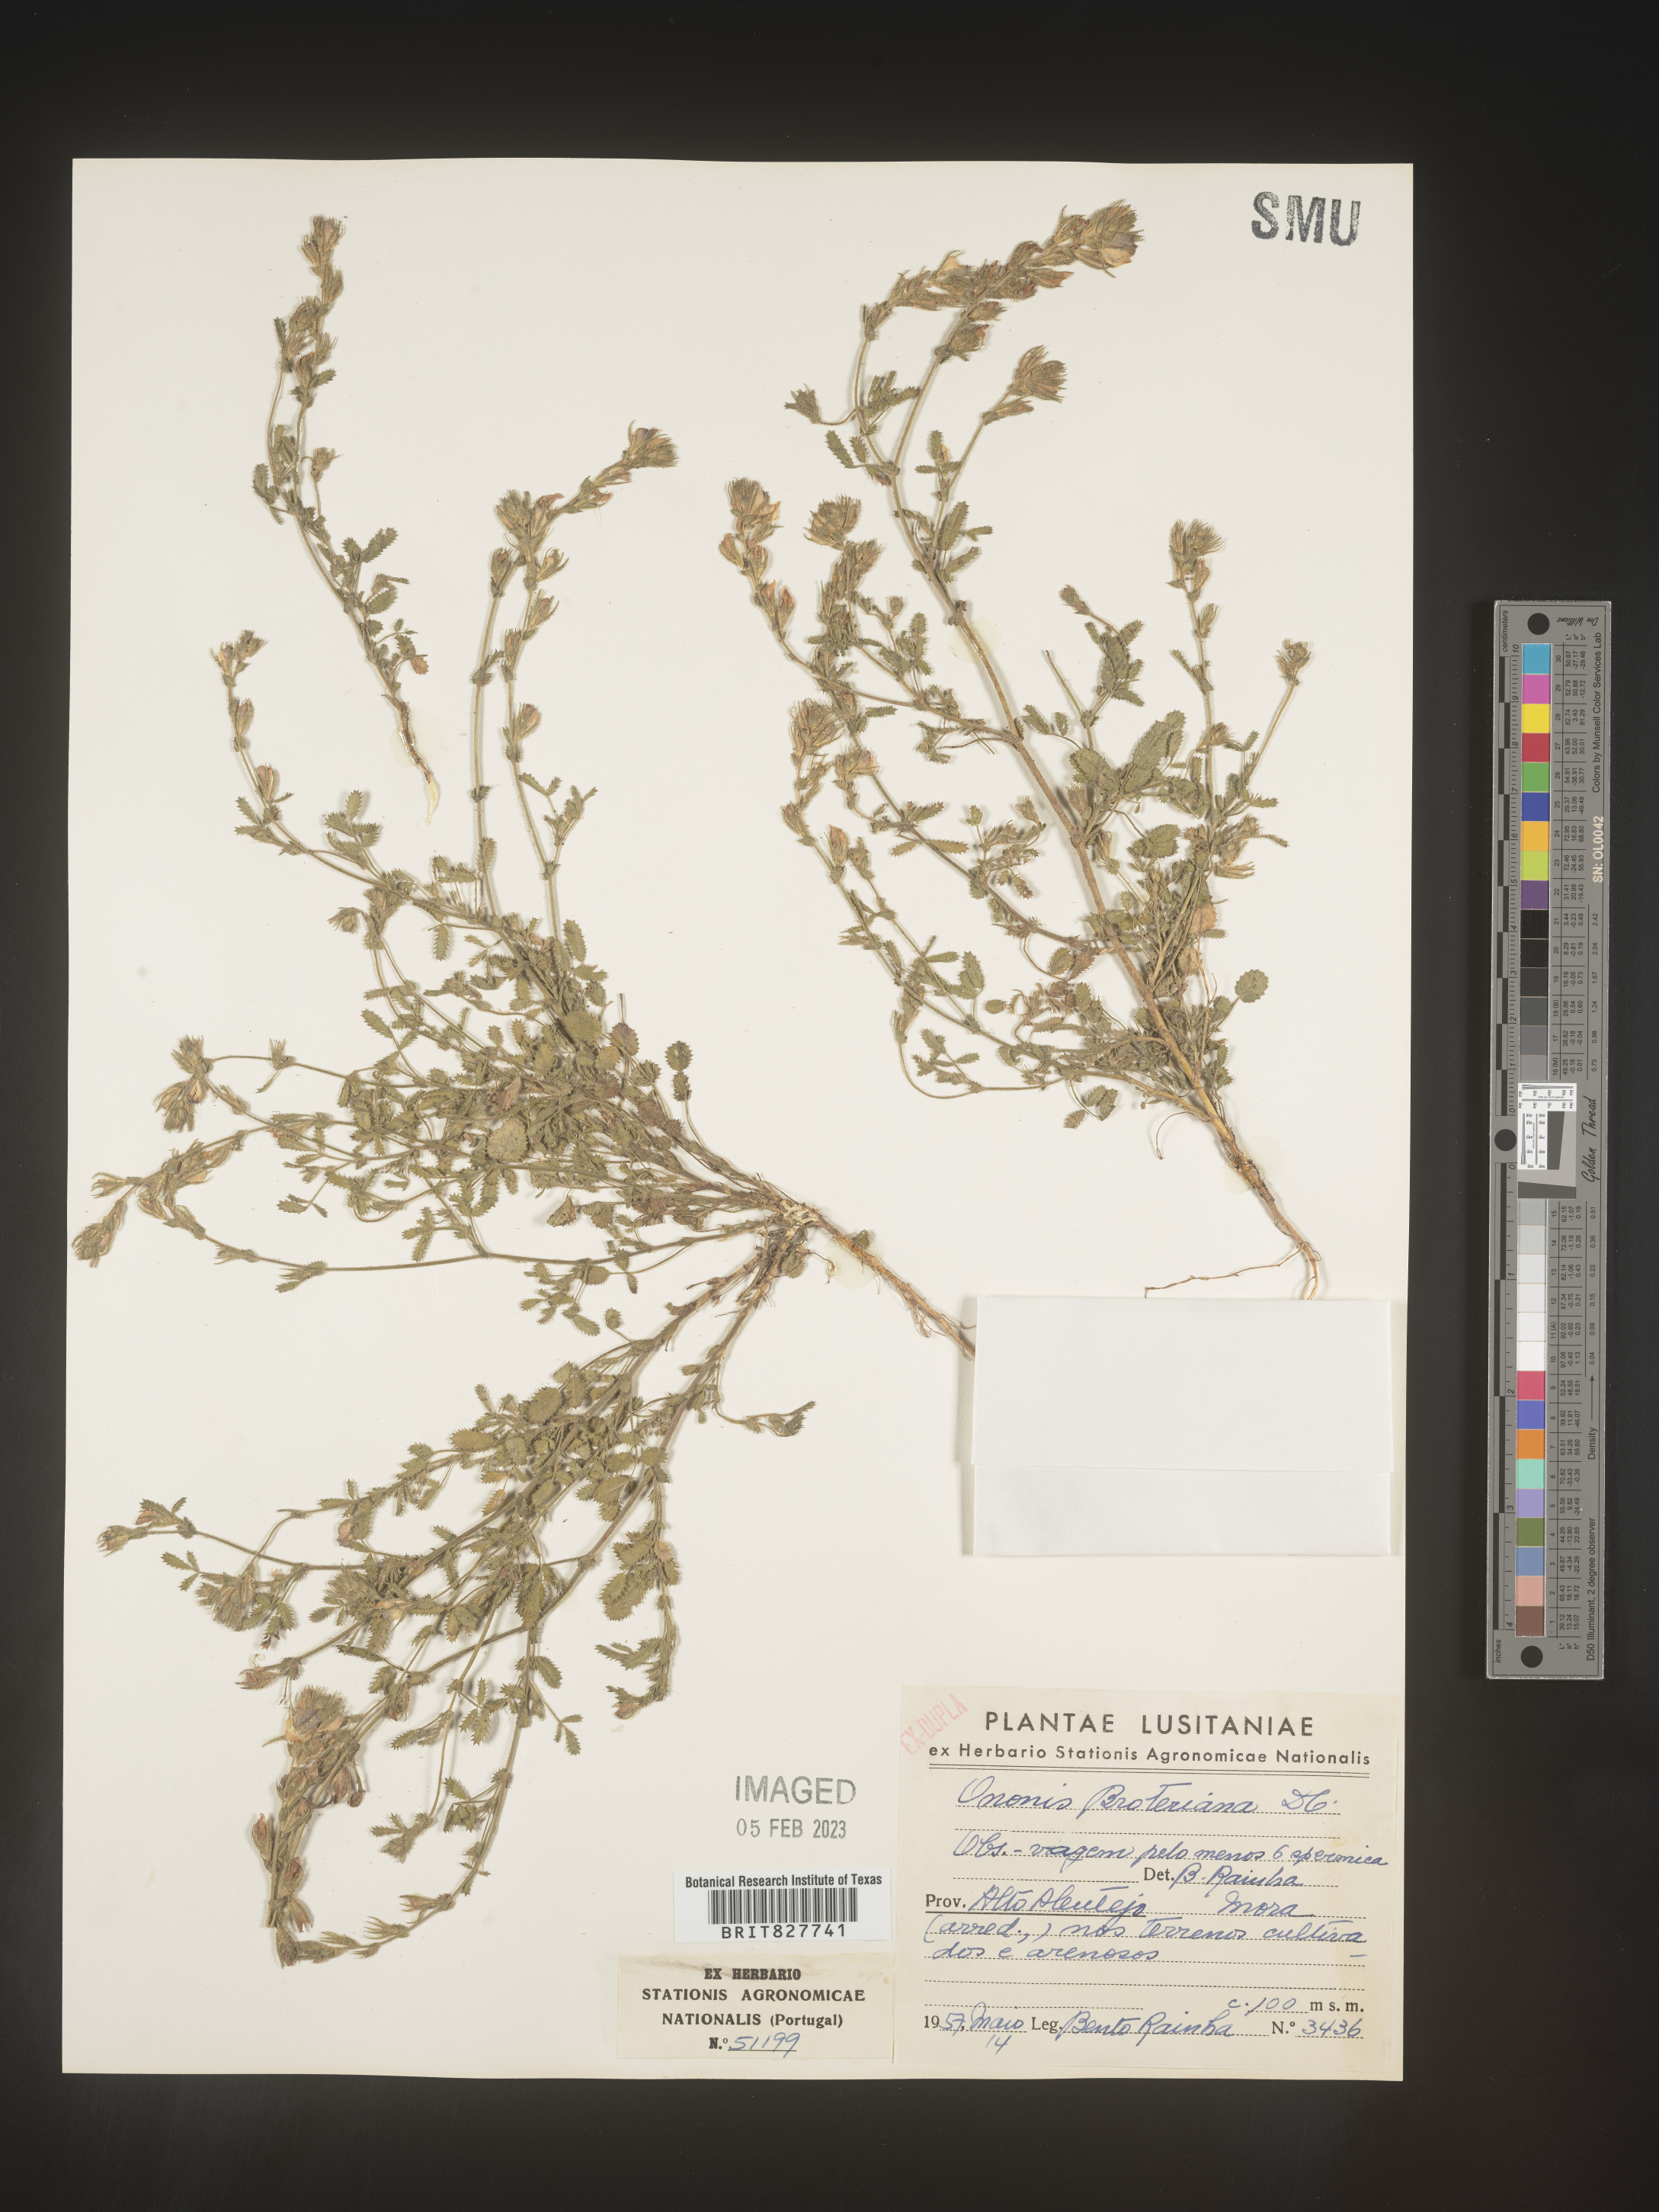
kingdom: Plantae
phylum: Tracheophyta
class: Magnoliopsida
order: Fabales
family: Fabaceae
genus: Ononis
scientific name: Ononis
